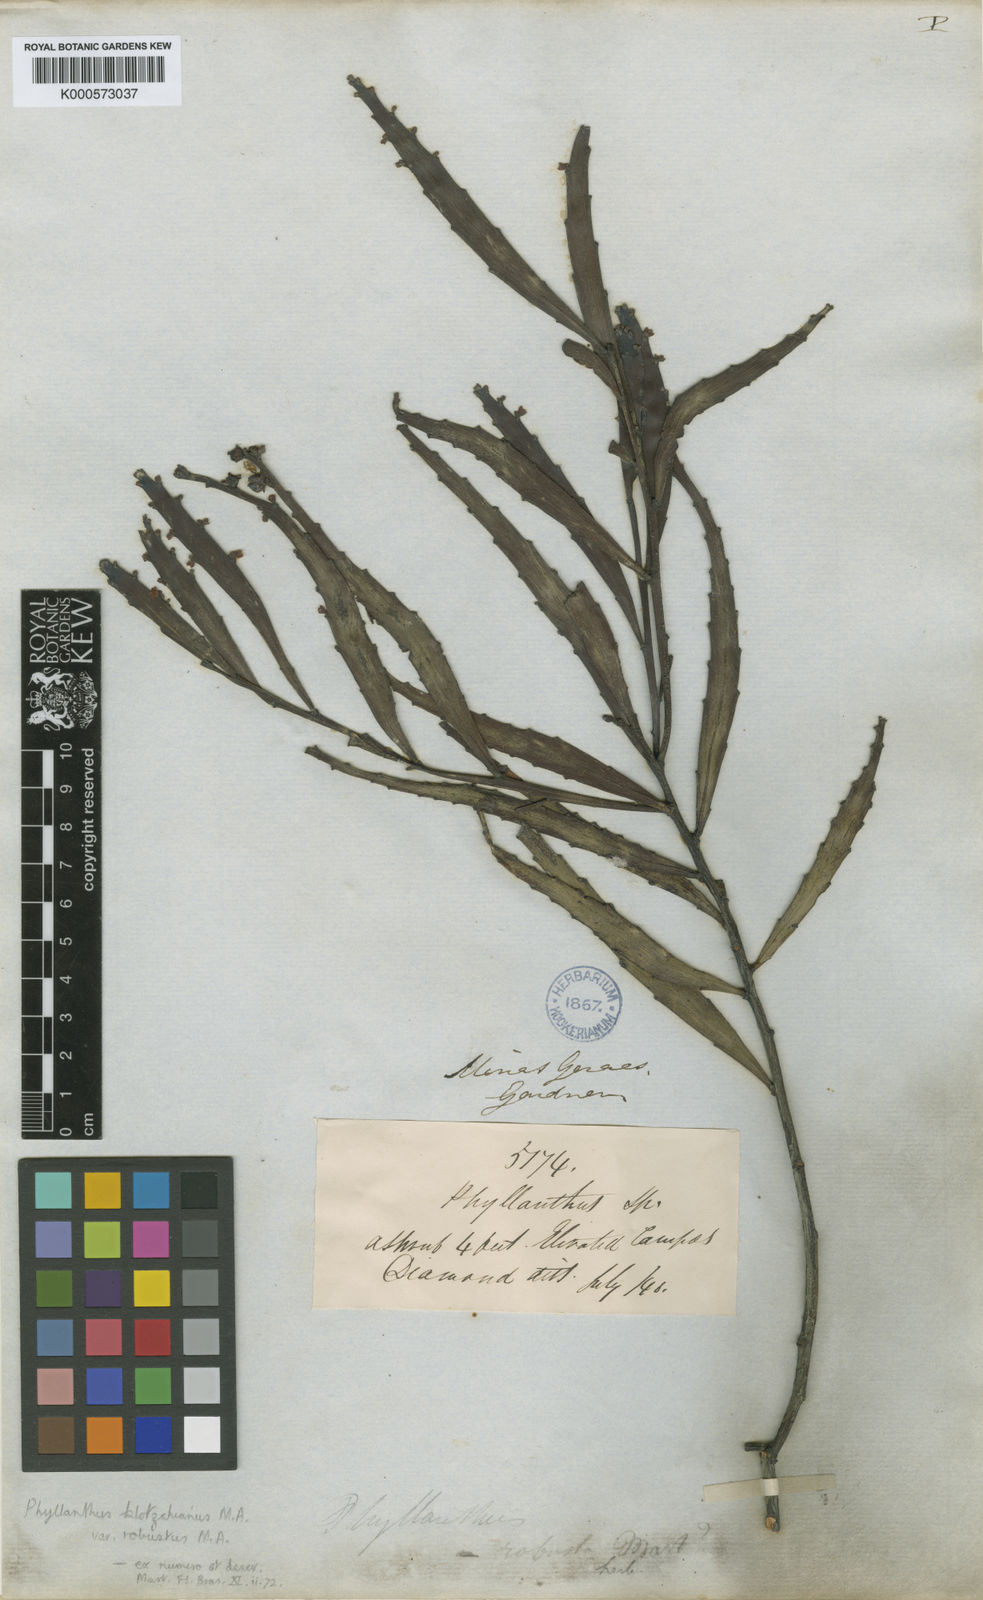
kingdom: Plantae
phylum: Tracheophyta
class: Magnoliopsida
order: Malpighiales
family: Phyllanthaceae
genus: Phyllanthus
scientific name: Phyllanthus
